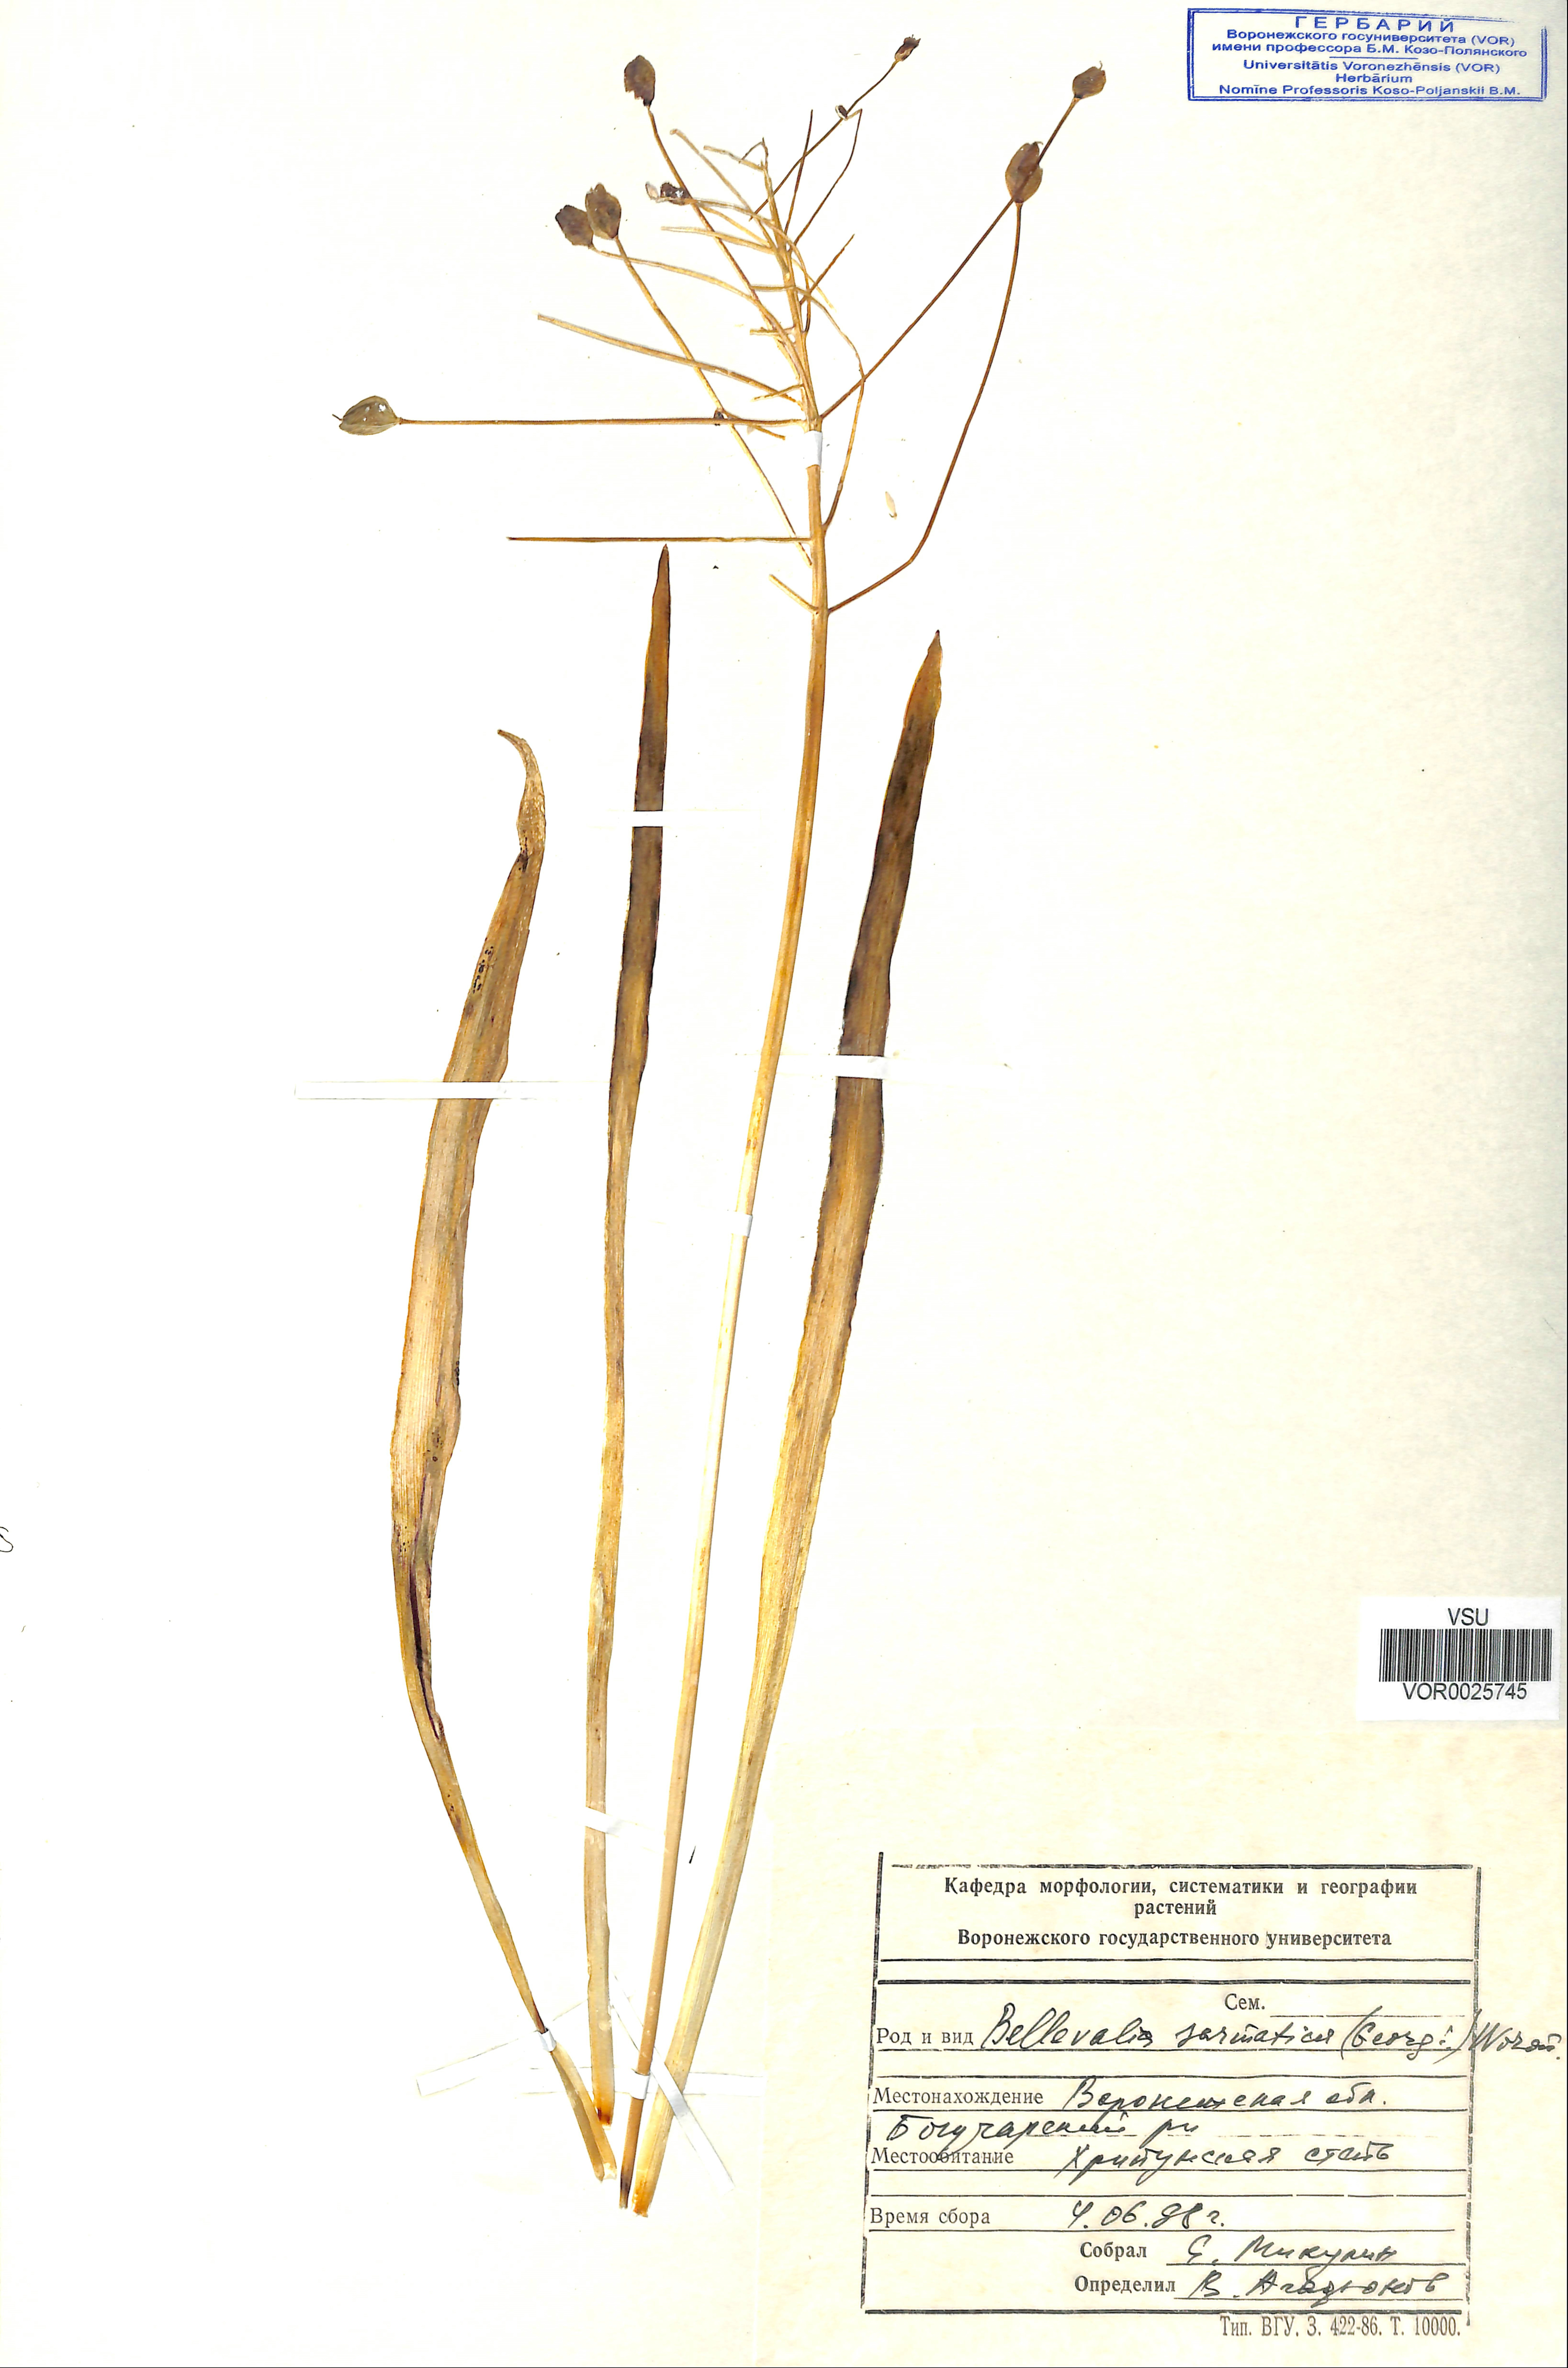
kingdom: Plantae
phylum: Tracheophyta
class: Liliopsida
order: Asparagales
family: Asparagaceae
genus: Bellevalia
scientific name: Bellevalia speciosa
